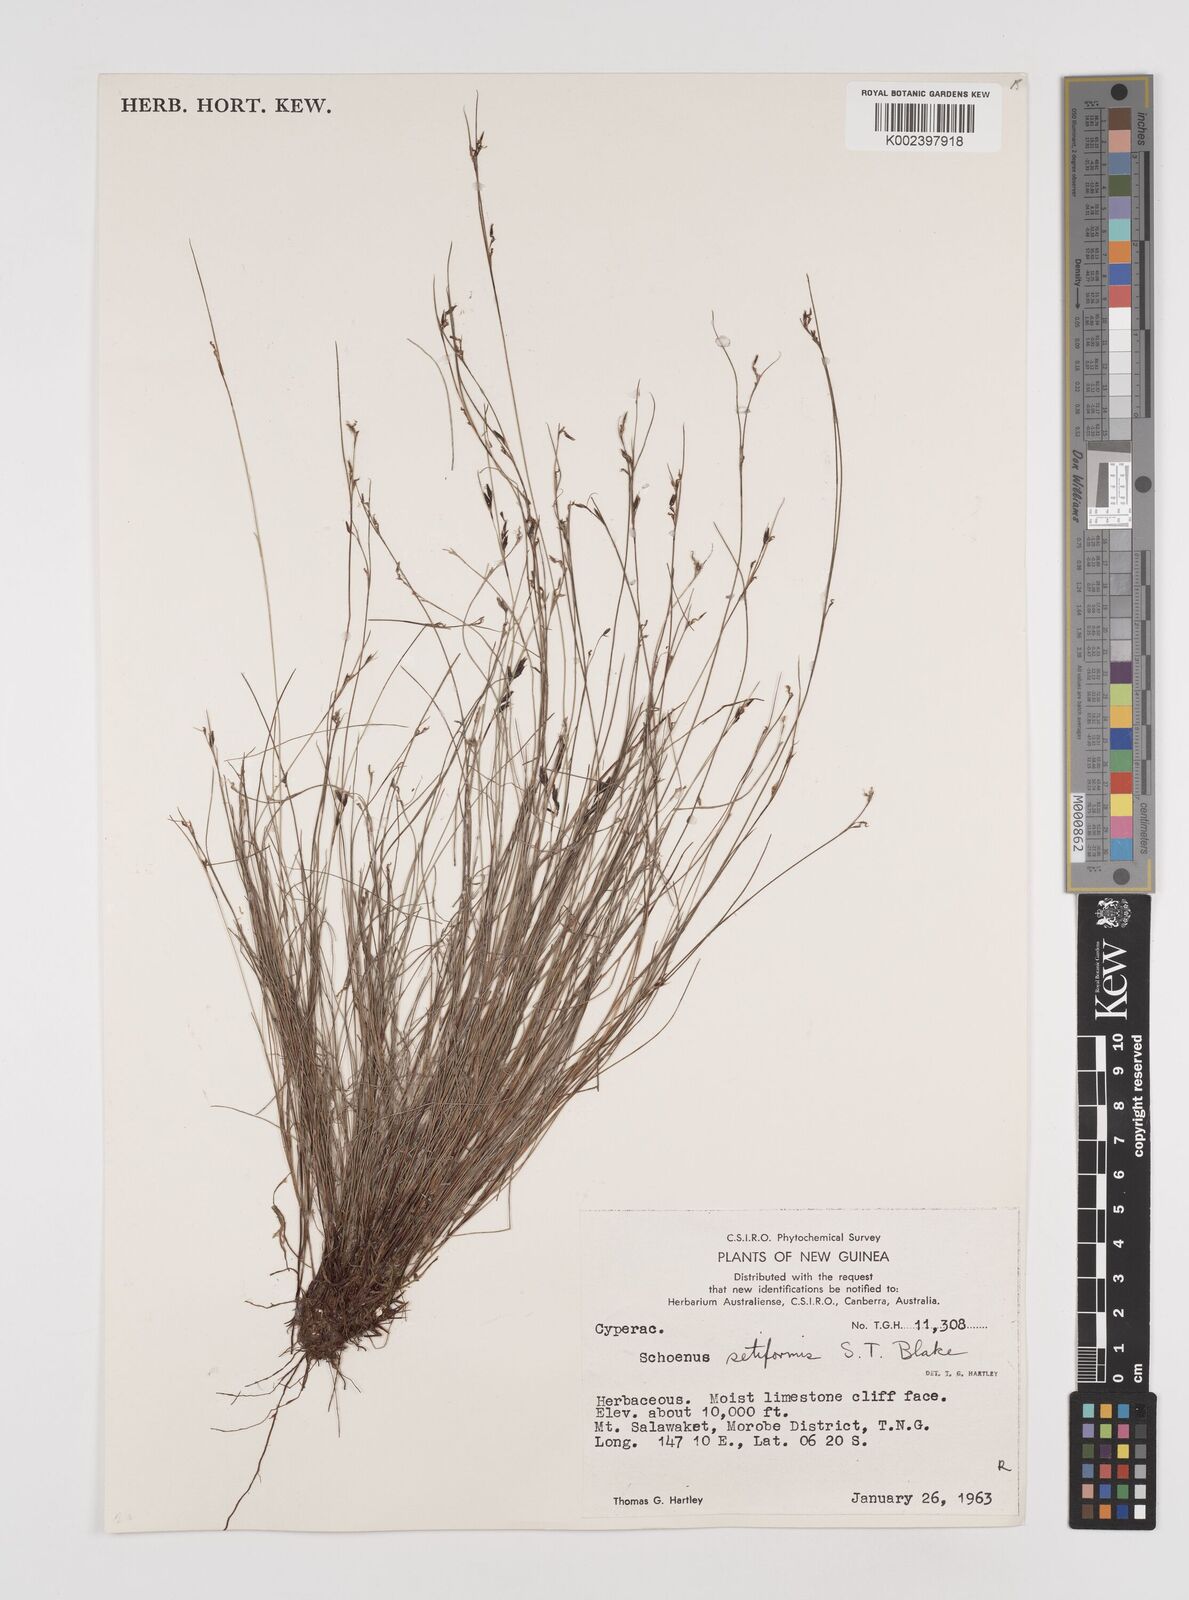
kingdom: Plantae
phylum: Tracheophyta
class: Liliopsida
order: Poales
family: Cyperaceae
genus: Schoenus
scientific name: Schoenus setiformis
